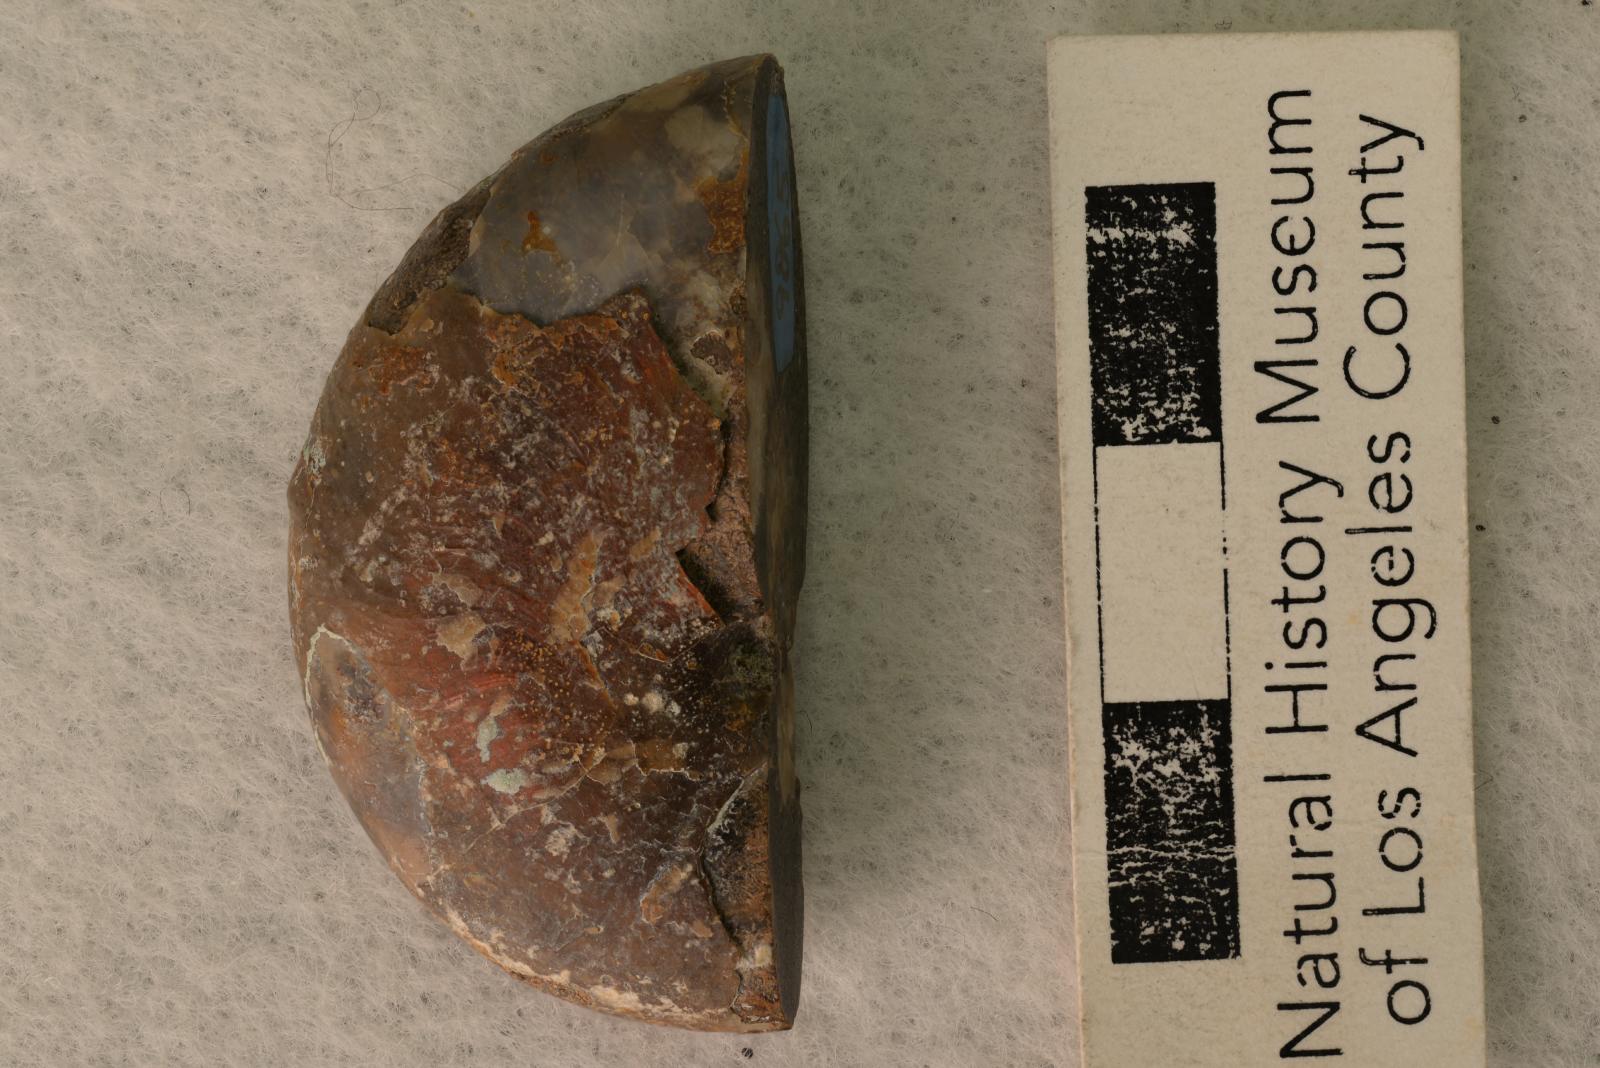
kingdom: Animalia
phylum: Mollusca
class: Cephalopoda
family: Desmoceratidae
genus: Desmoceras
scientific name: Desmoceras barryae
